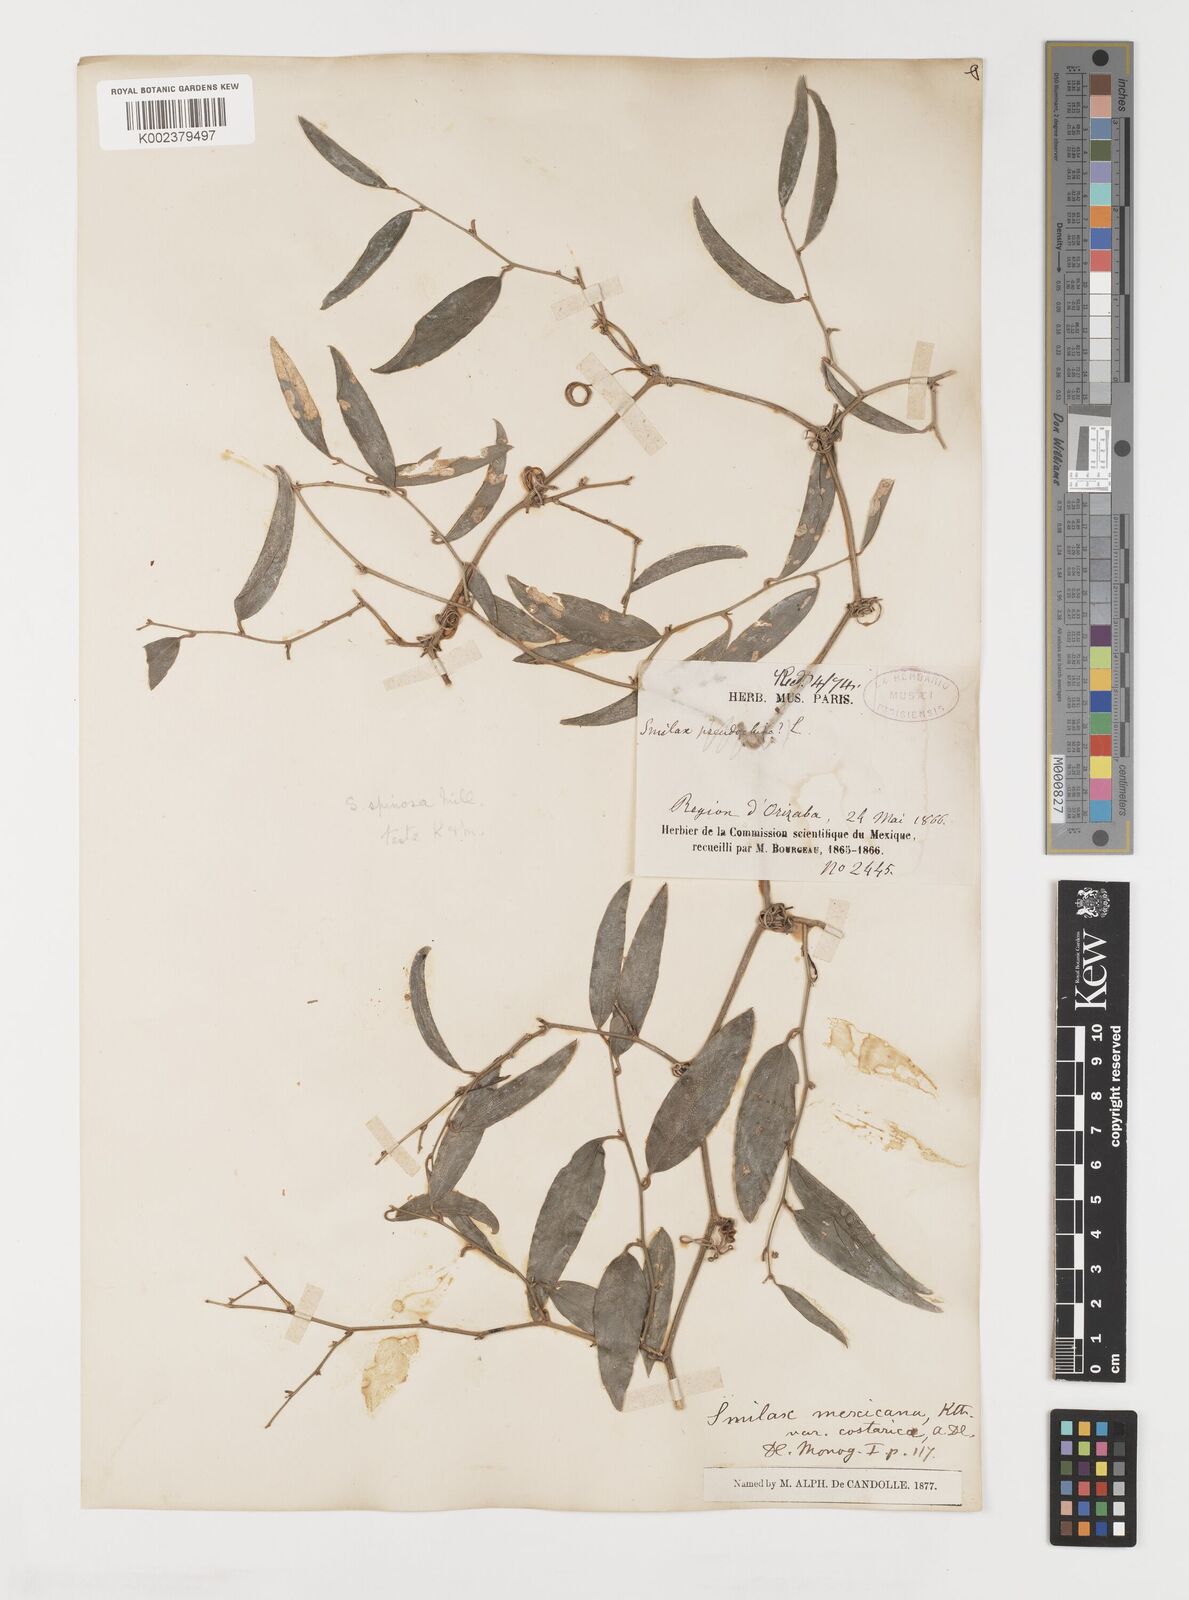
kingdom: Plantae
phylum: Tracheophyta
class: Liliopsida
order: Liliales
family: Smilacaceae
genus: Smilax
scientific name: Smilax spinosa
